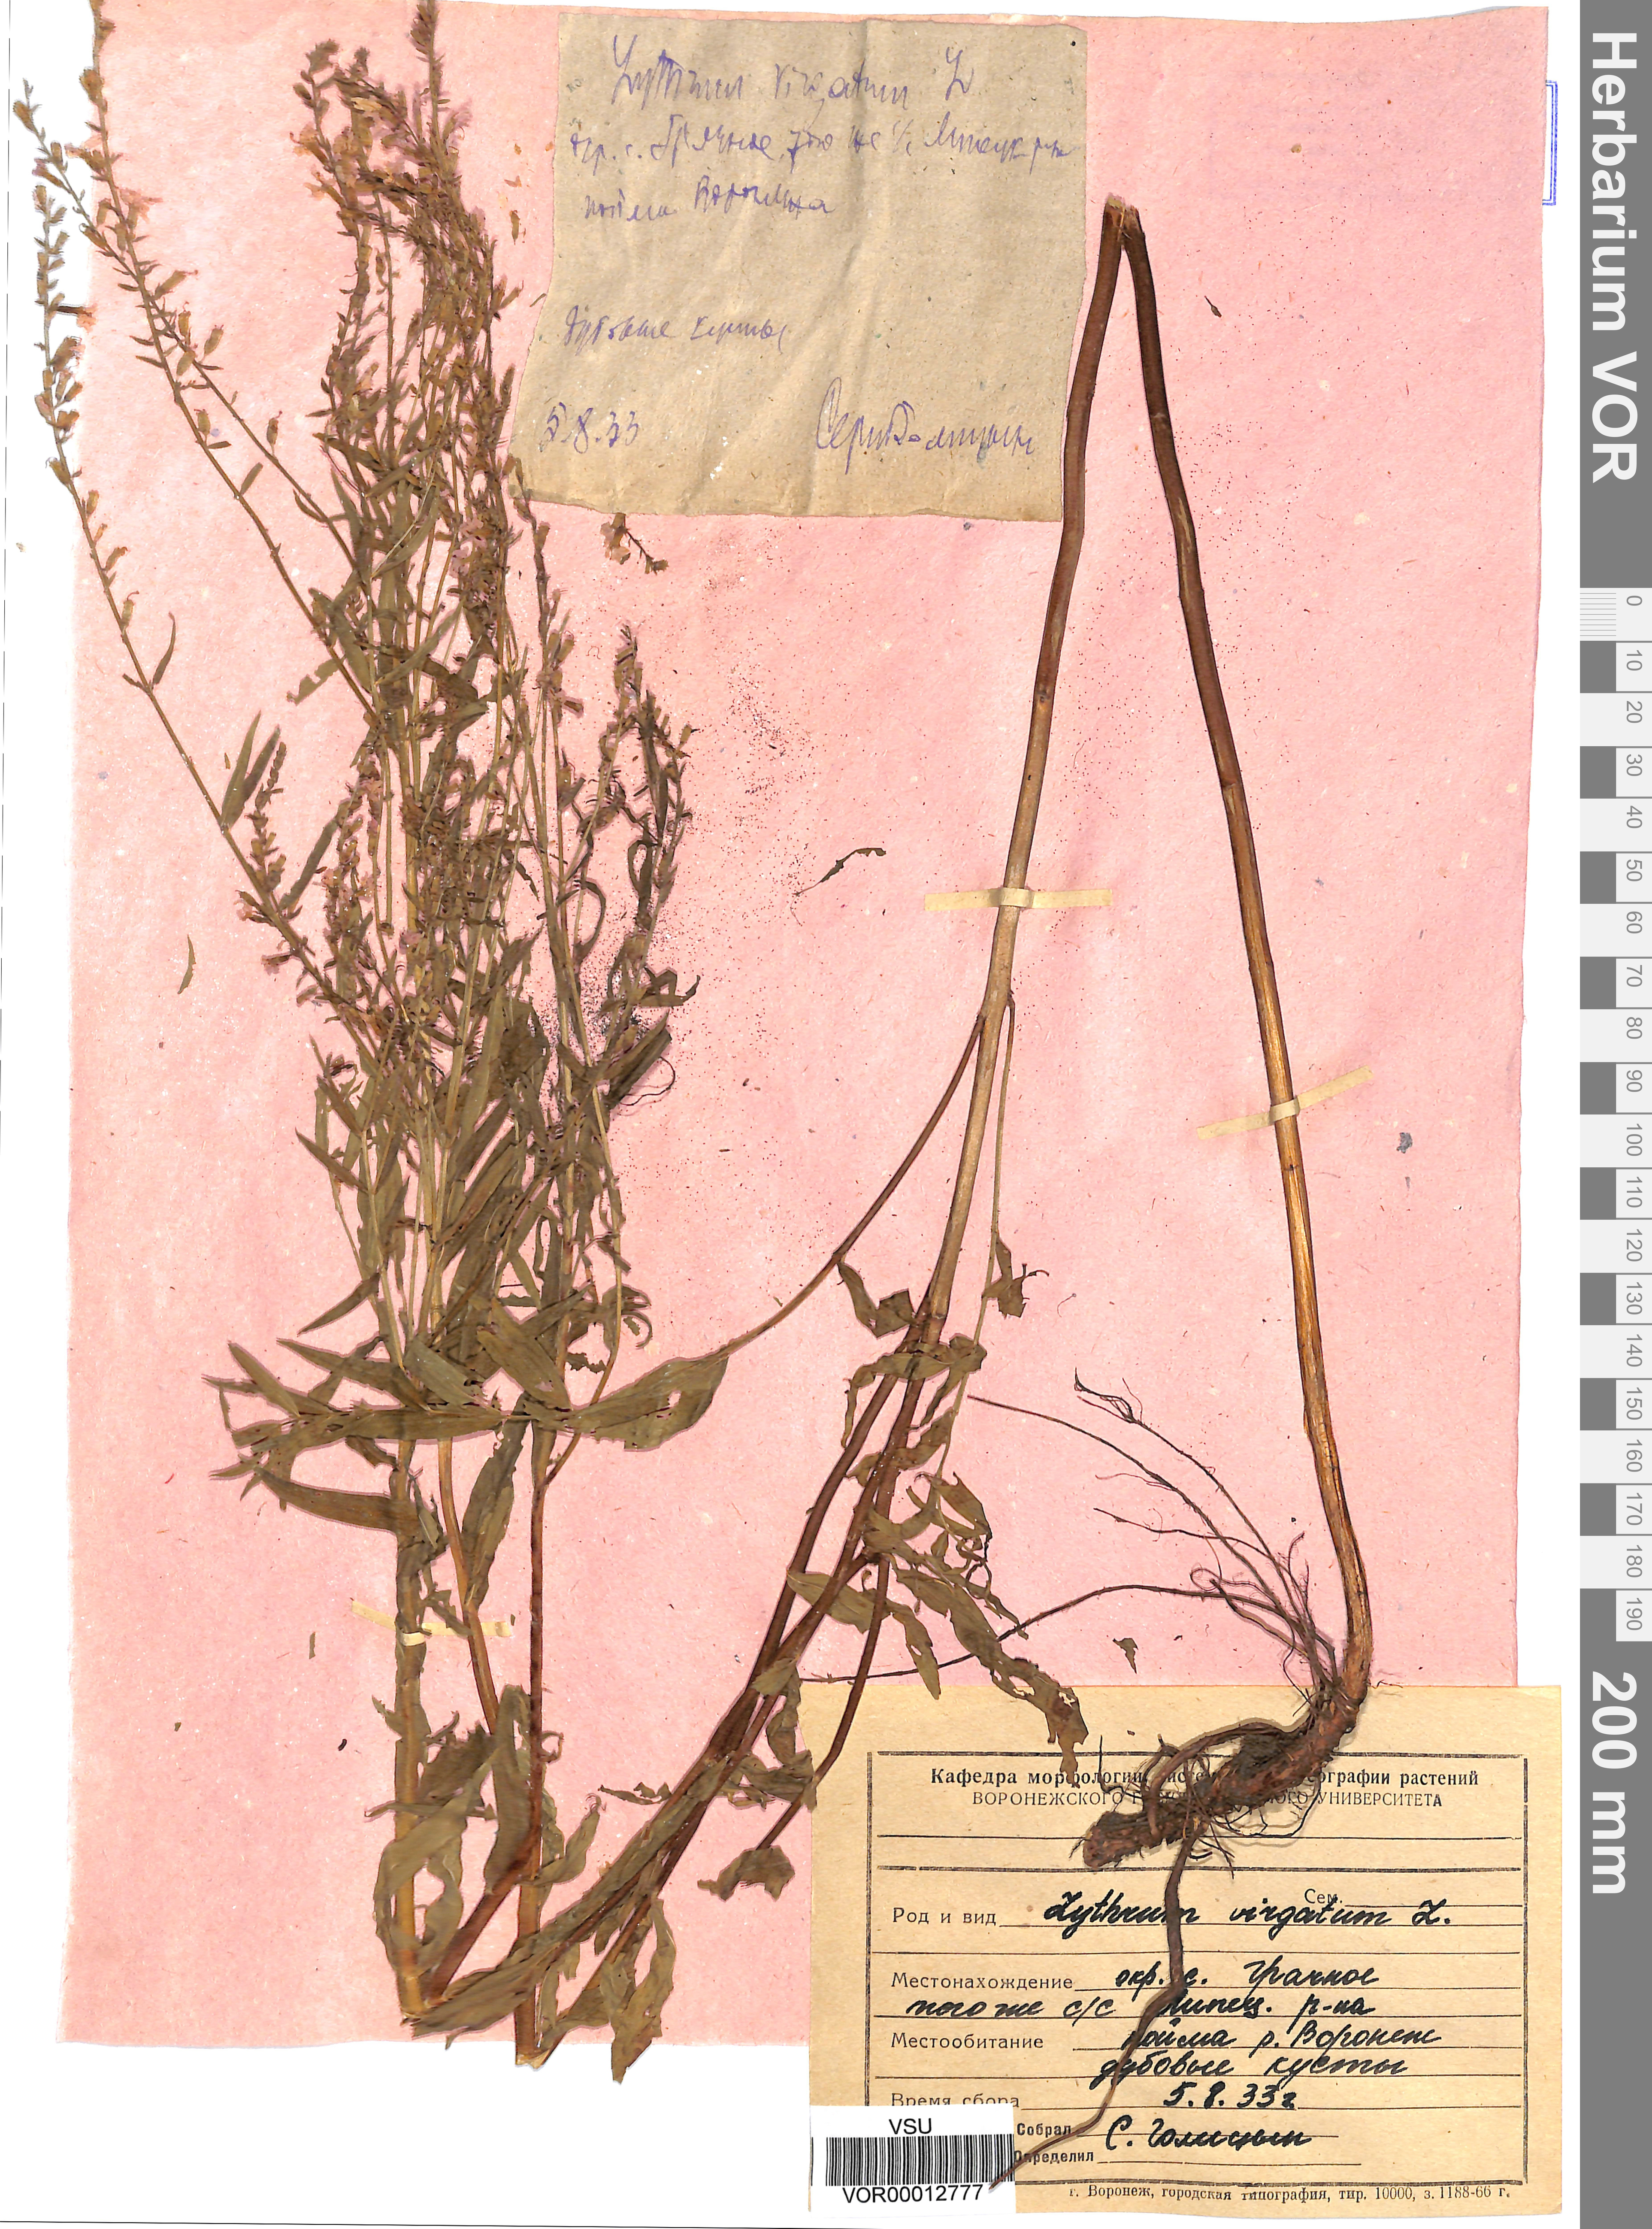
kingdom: Plantae
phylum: Tracheophyta
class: Magnoliopsida
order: Myrtales
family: Lythraceae
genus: Lythrum
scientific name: Lythrum virgatum
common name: European wand loosestrife
